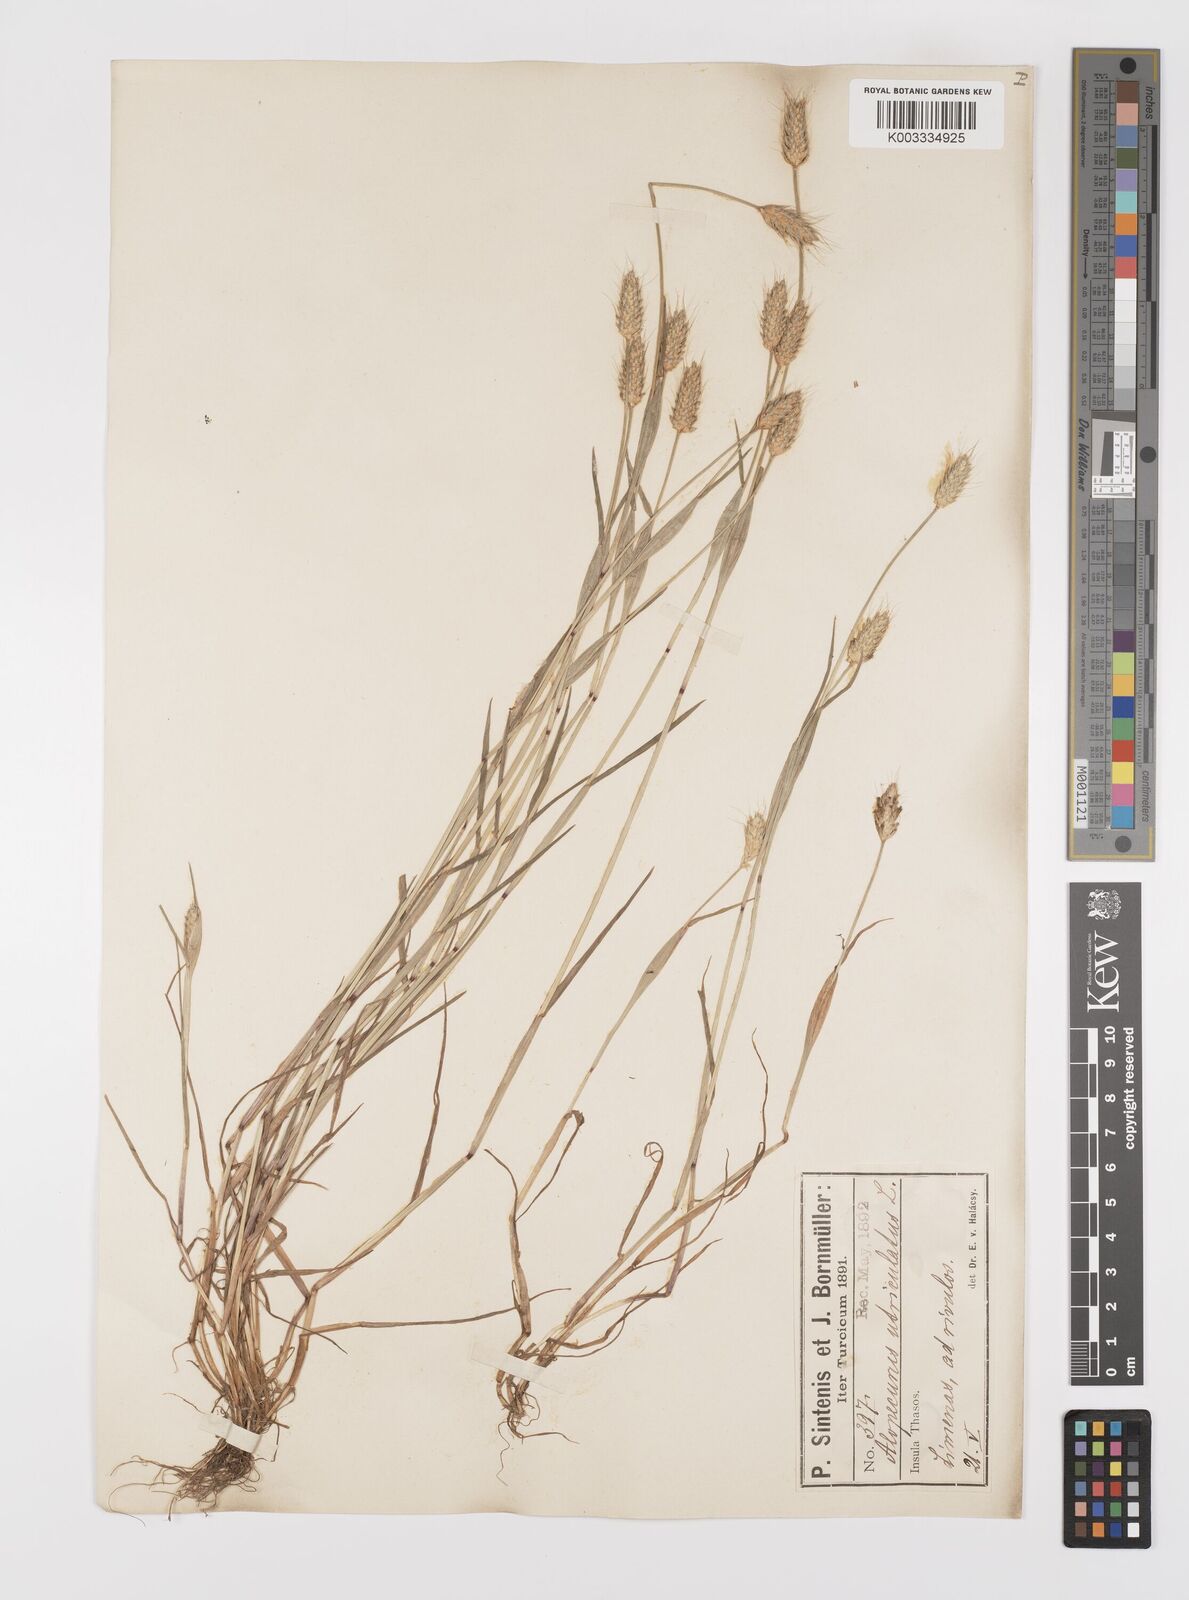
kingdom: Plantae
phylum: Tracheophyta
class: Liliopsida
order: Poales
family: Poaceae
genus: Alopecurus
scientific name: Alopecurus rendlei
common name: Rendle's meadow foxtail
